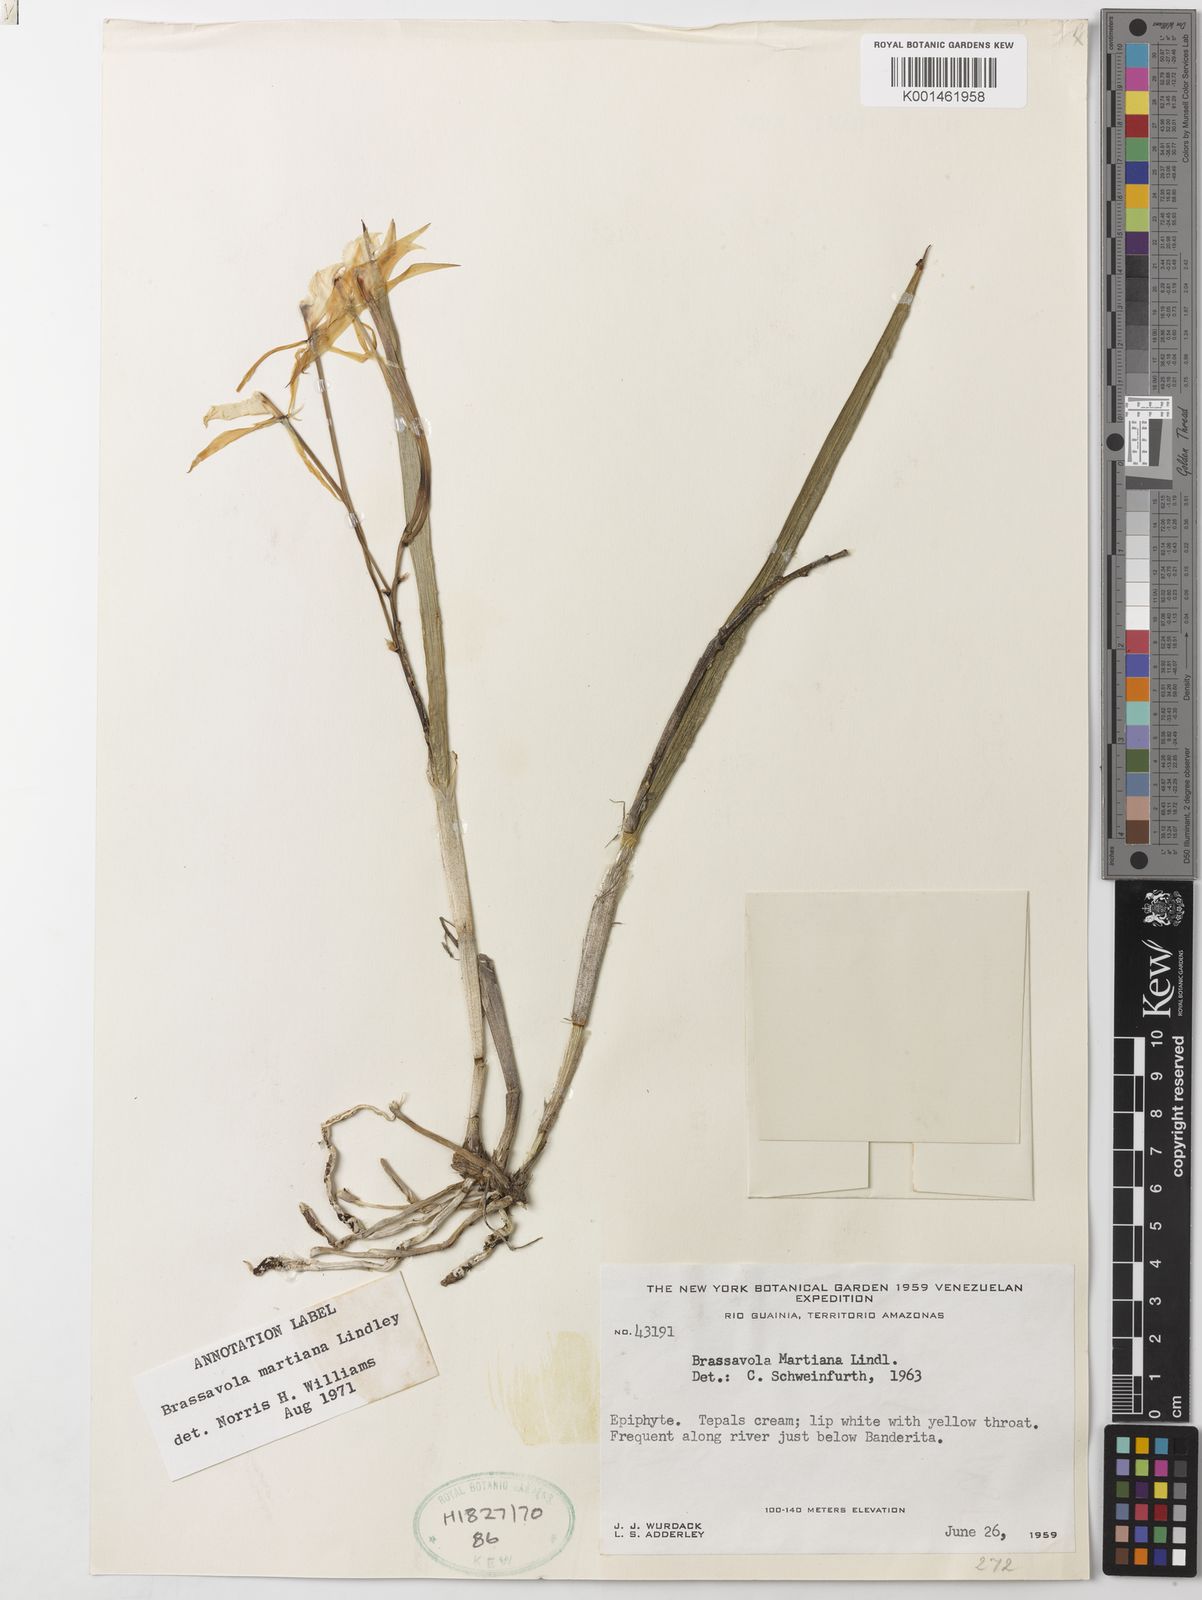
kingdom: Plantae
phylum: Tracheophyta
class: Liliopsida
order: Asparagales
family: Orchidaceae
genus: Brassavola
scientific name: Brassavola martiana
